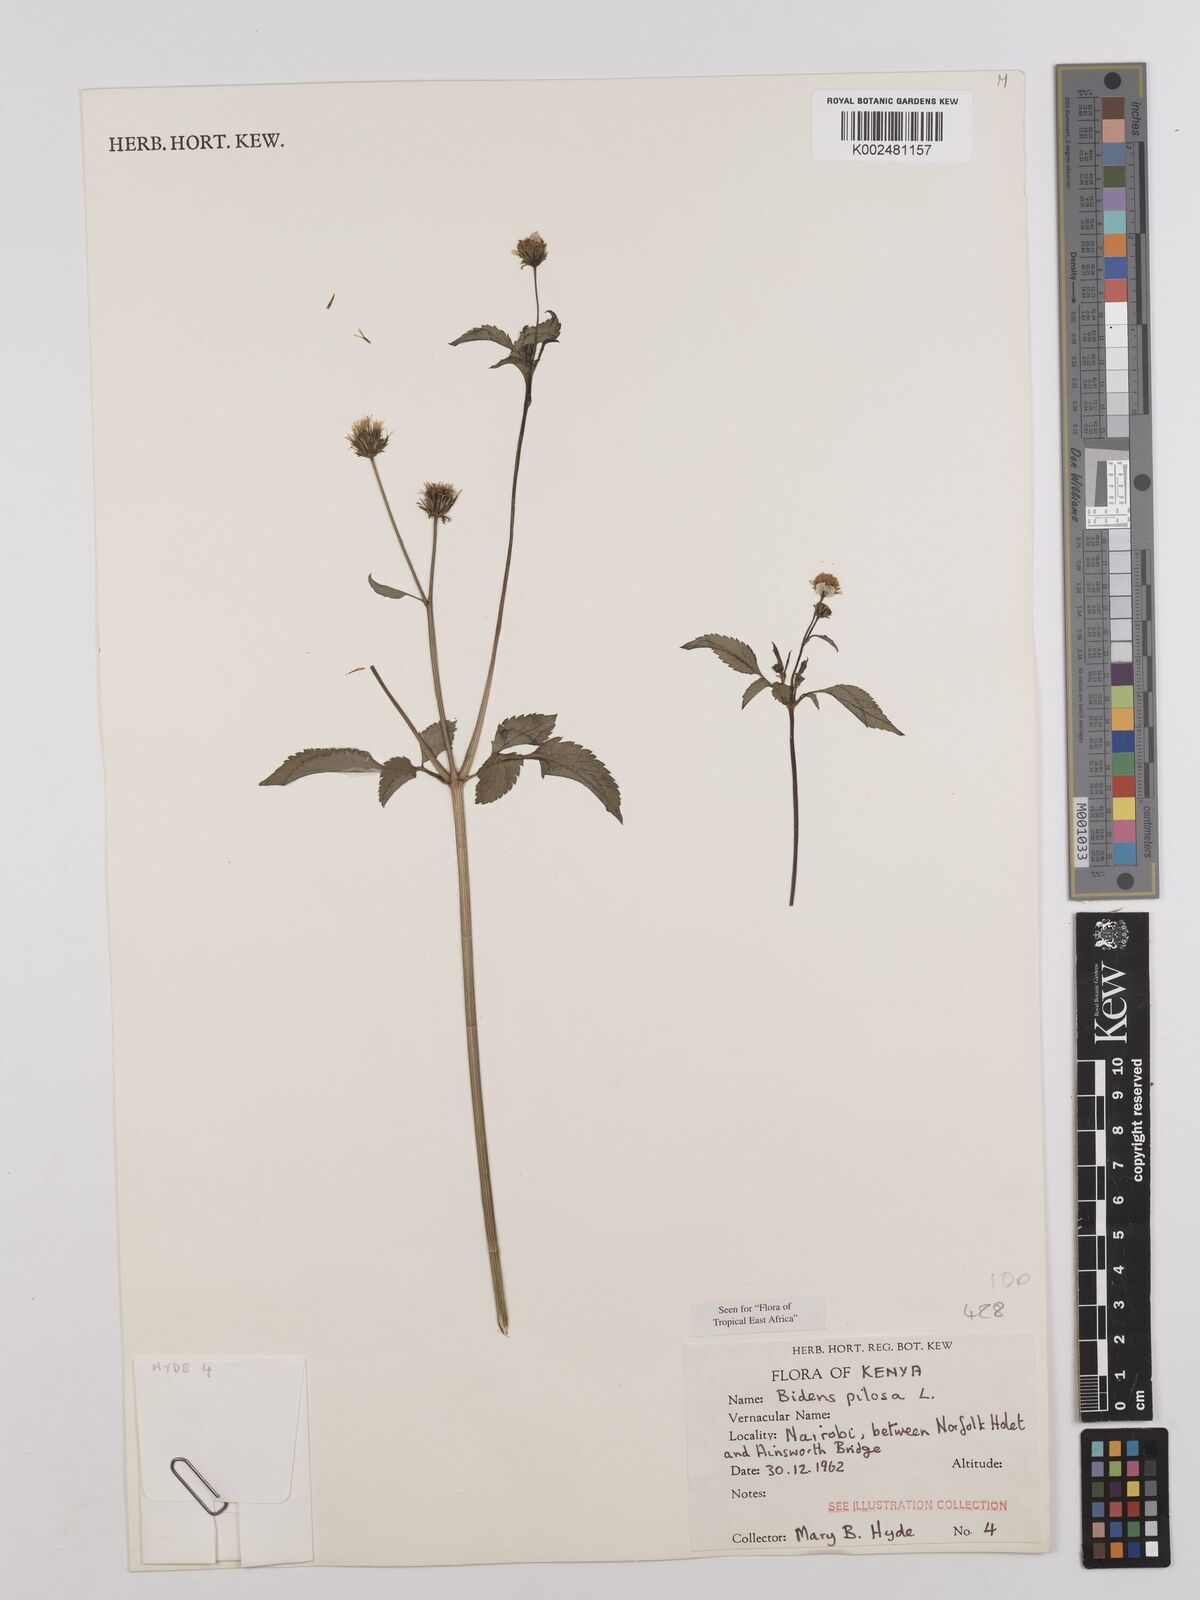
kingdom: Plantae
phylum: Tracheophyta
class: Magnoliopsida
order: Asterales
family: Asteraceae
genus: Bidens
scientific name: Bidens pilosa
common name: Black-jack
